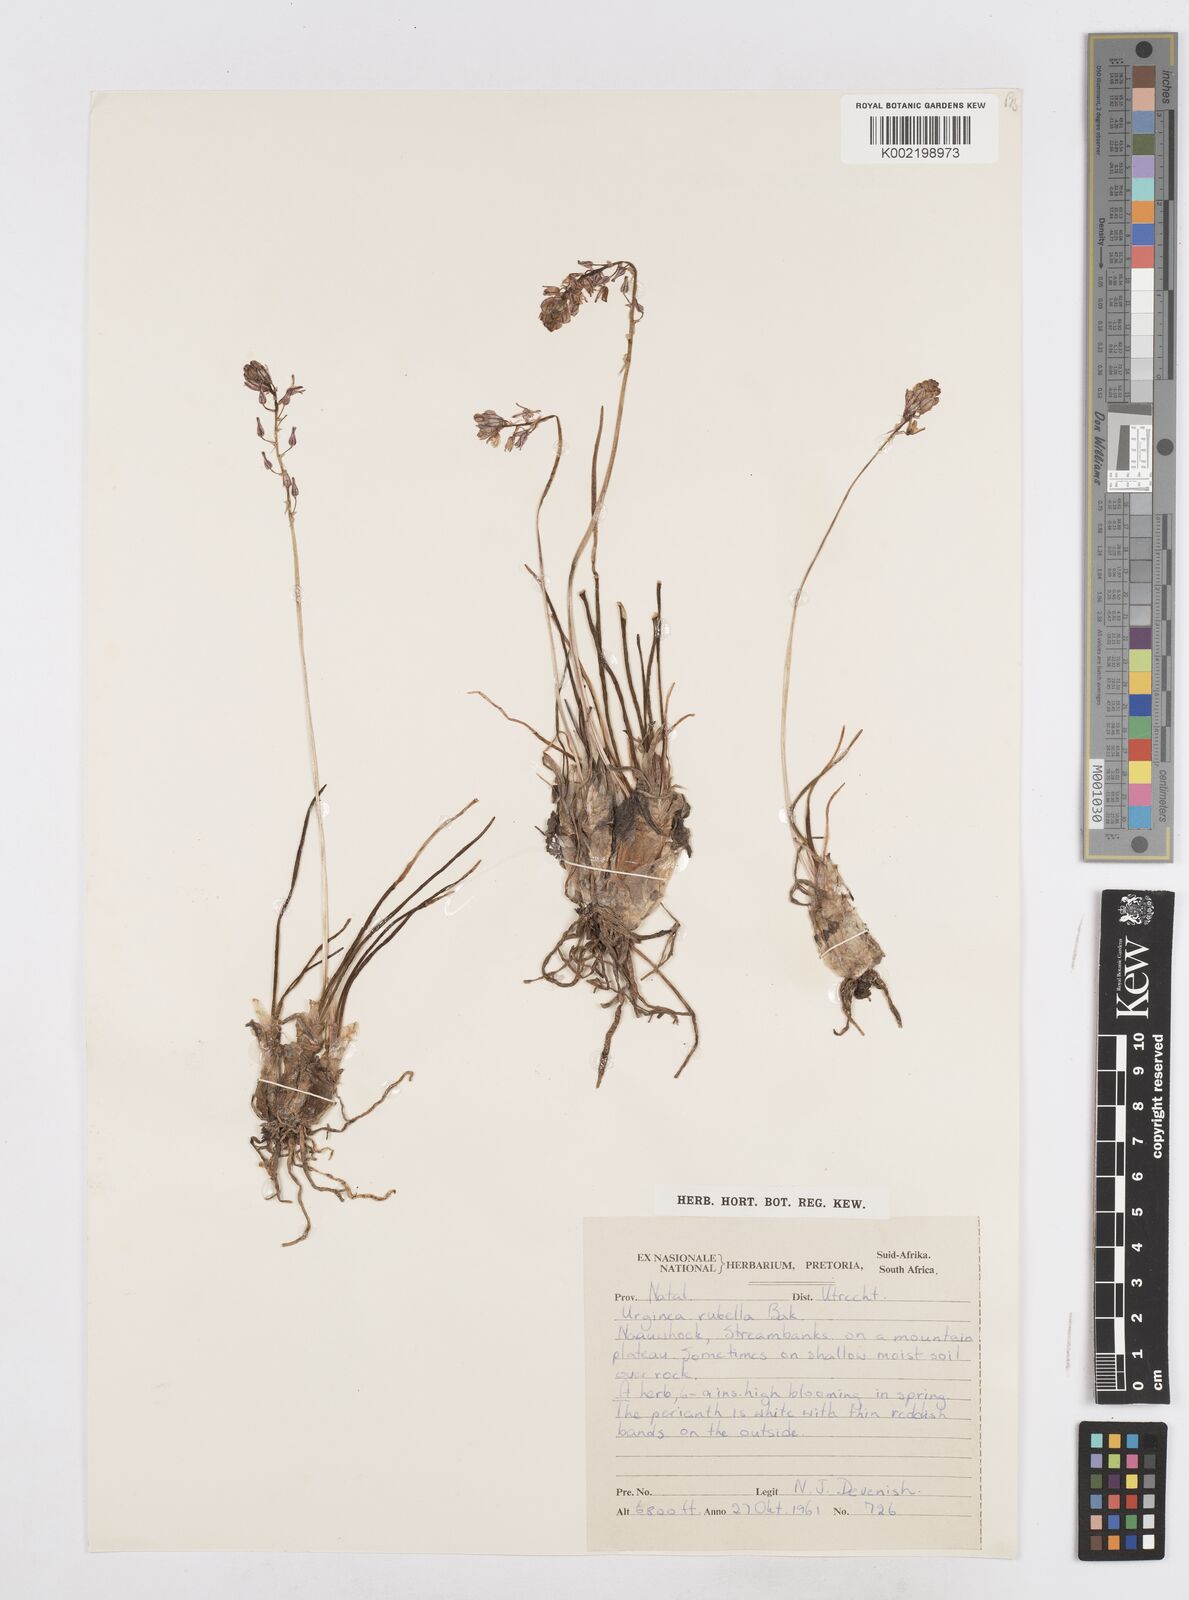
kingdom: Plantae
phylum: Tracheophyta
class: Liliopsida
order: Asparagales
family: Asparagaceae
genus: Drimia
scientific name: Drimia
